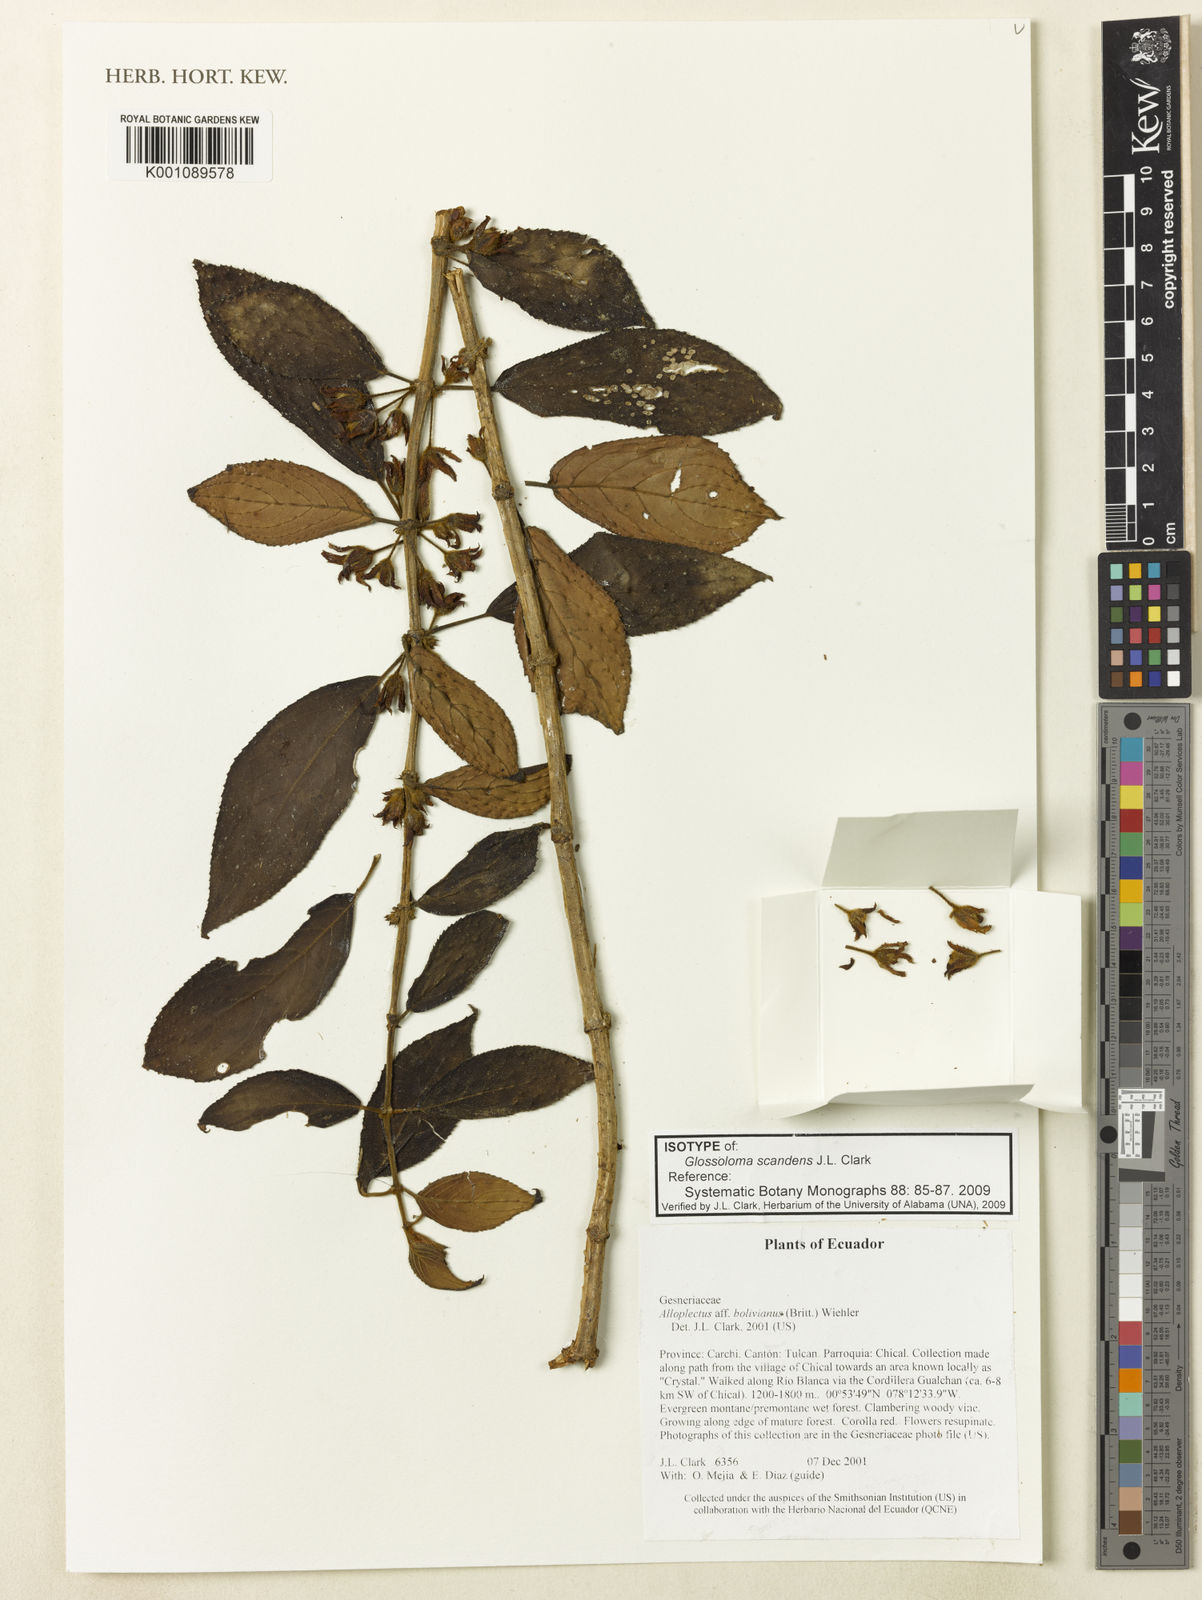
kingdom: Plantae
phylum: Tracheophyta
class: Magnoliopsida
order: Lamiales
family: Gesneriaceae
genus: Glossoloma
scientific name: Glossoloma scandens
